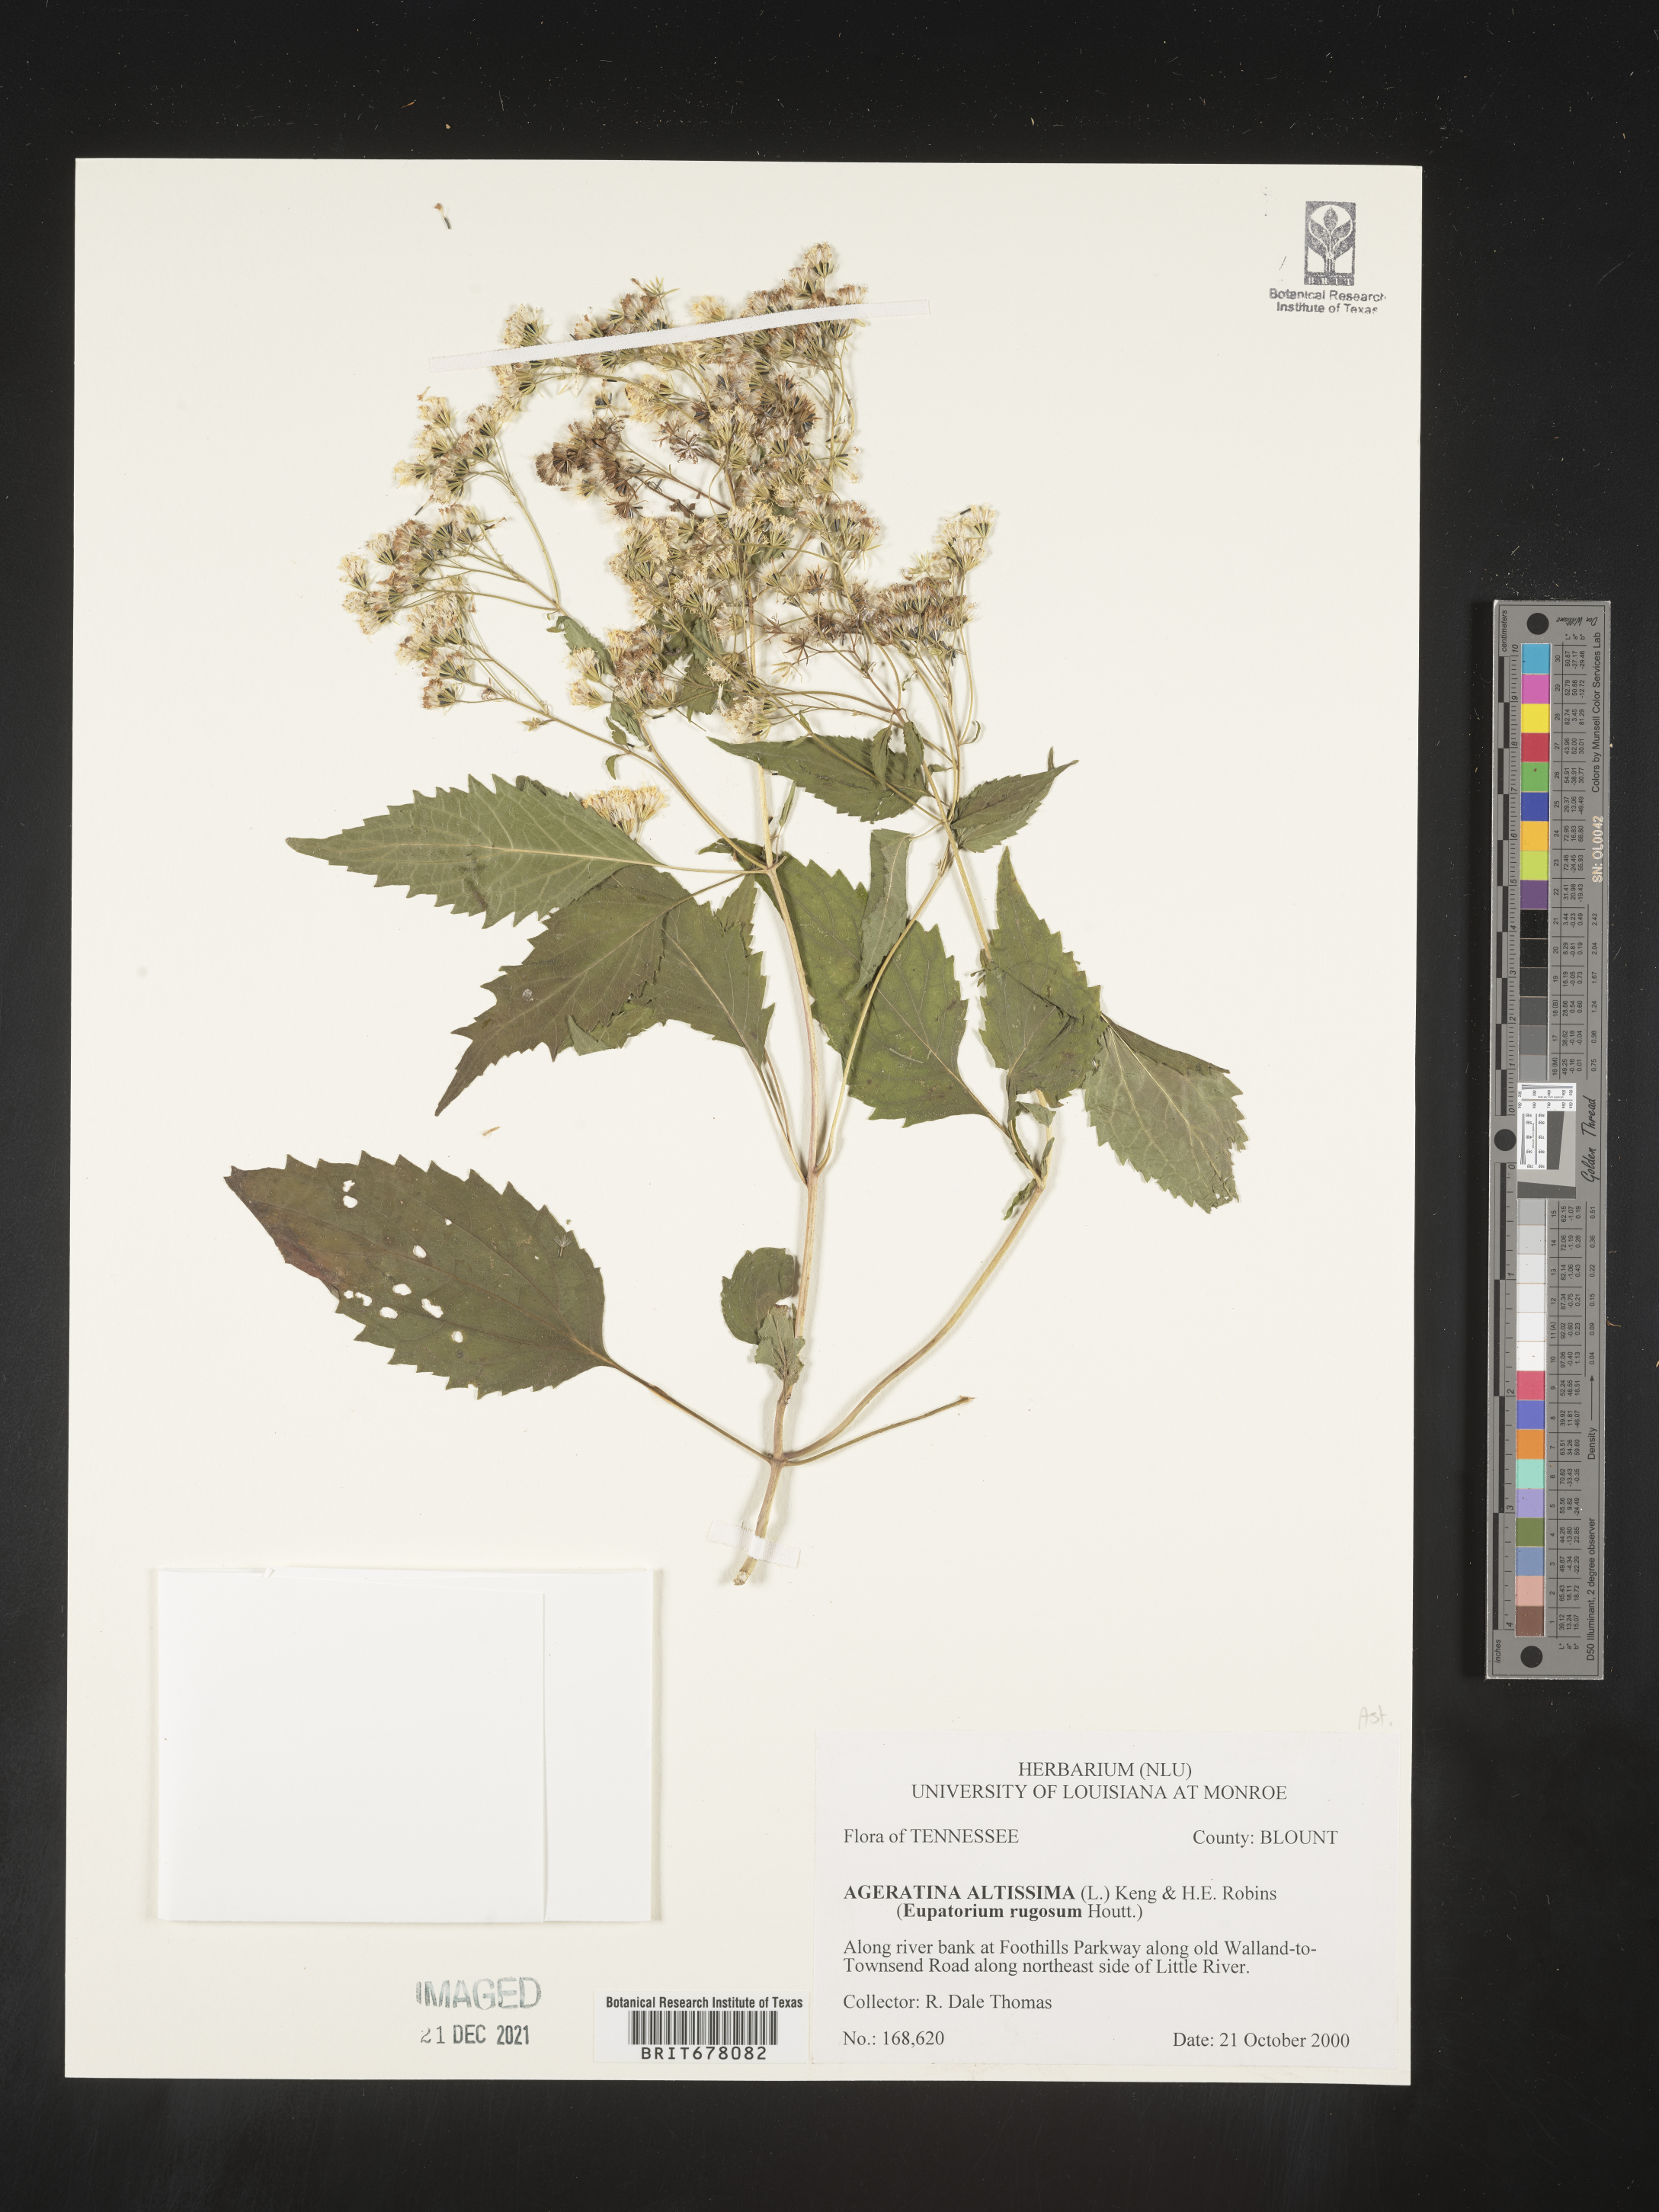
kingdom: Plantae
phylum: Tracheophyta
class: Magnoliopsida
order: Asterales
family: Asteraceae
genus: Eupatorium
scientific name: Eupatorium
